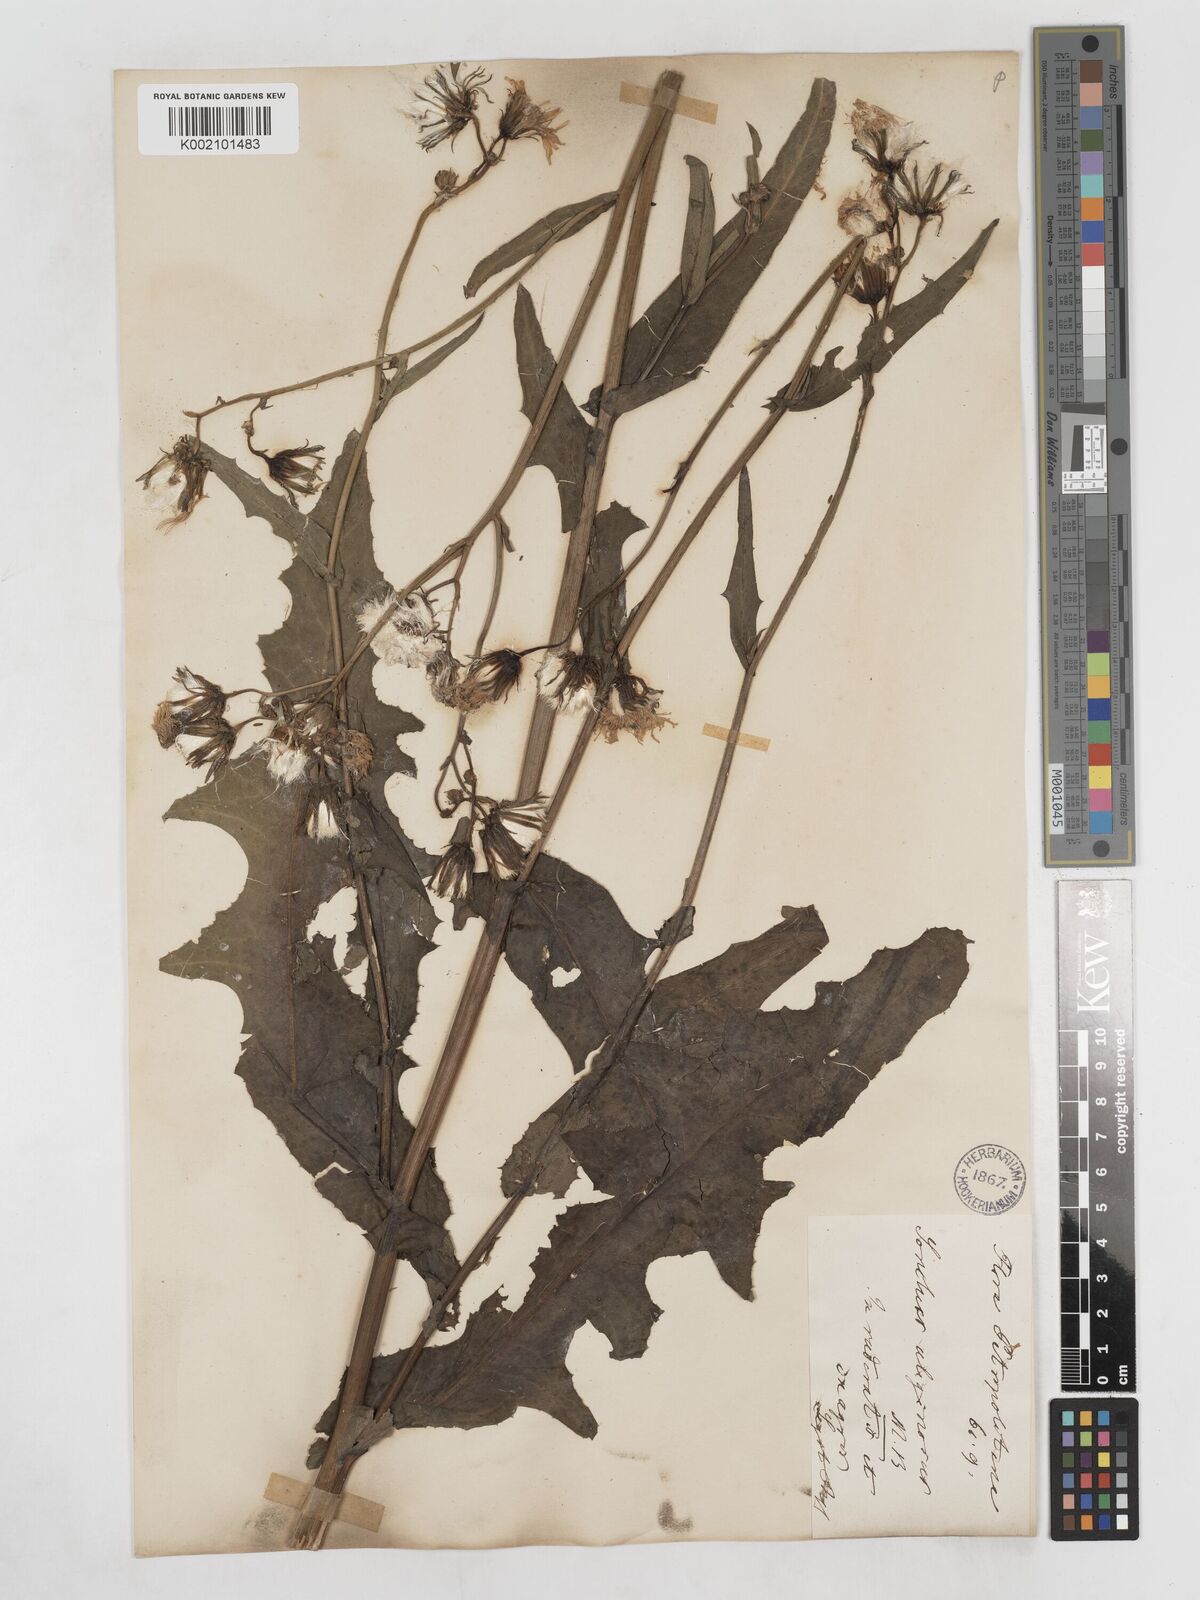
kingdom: Plantae
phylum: Tracheophyta
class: Magnoliopsida
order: Asterales
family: Asteraceae
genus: Sonchus
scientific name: Sonchus arvensis
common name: Perennial sow-thistle
